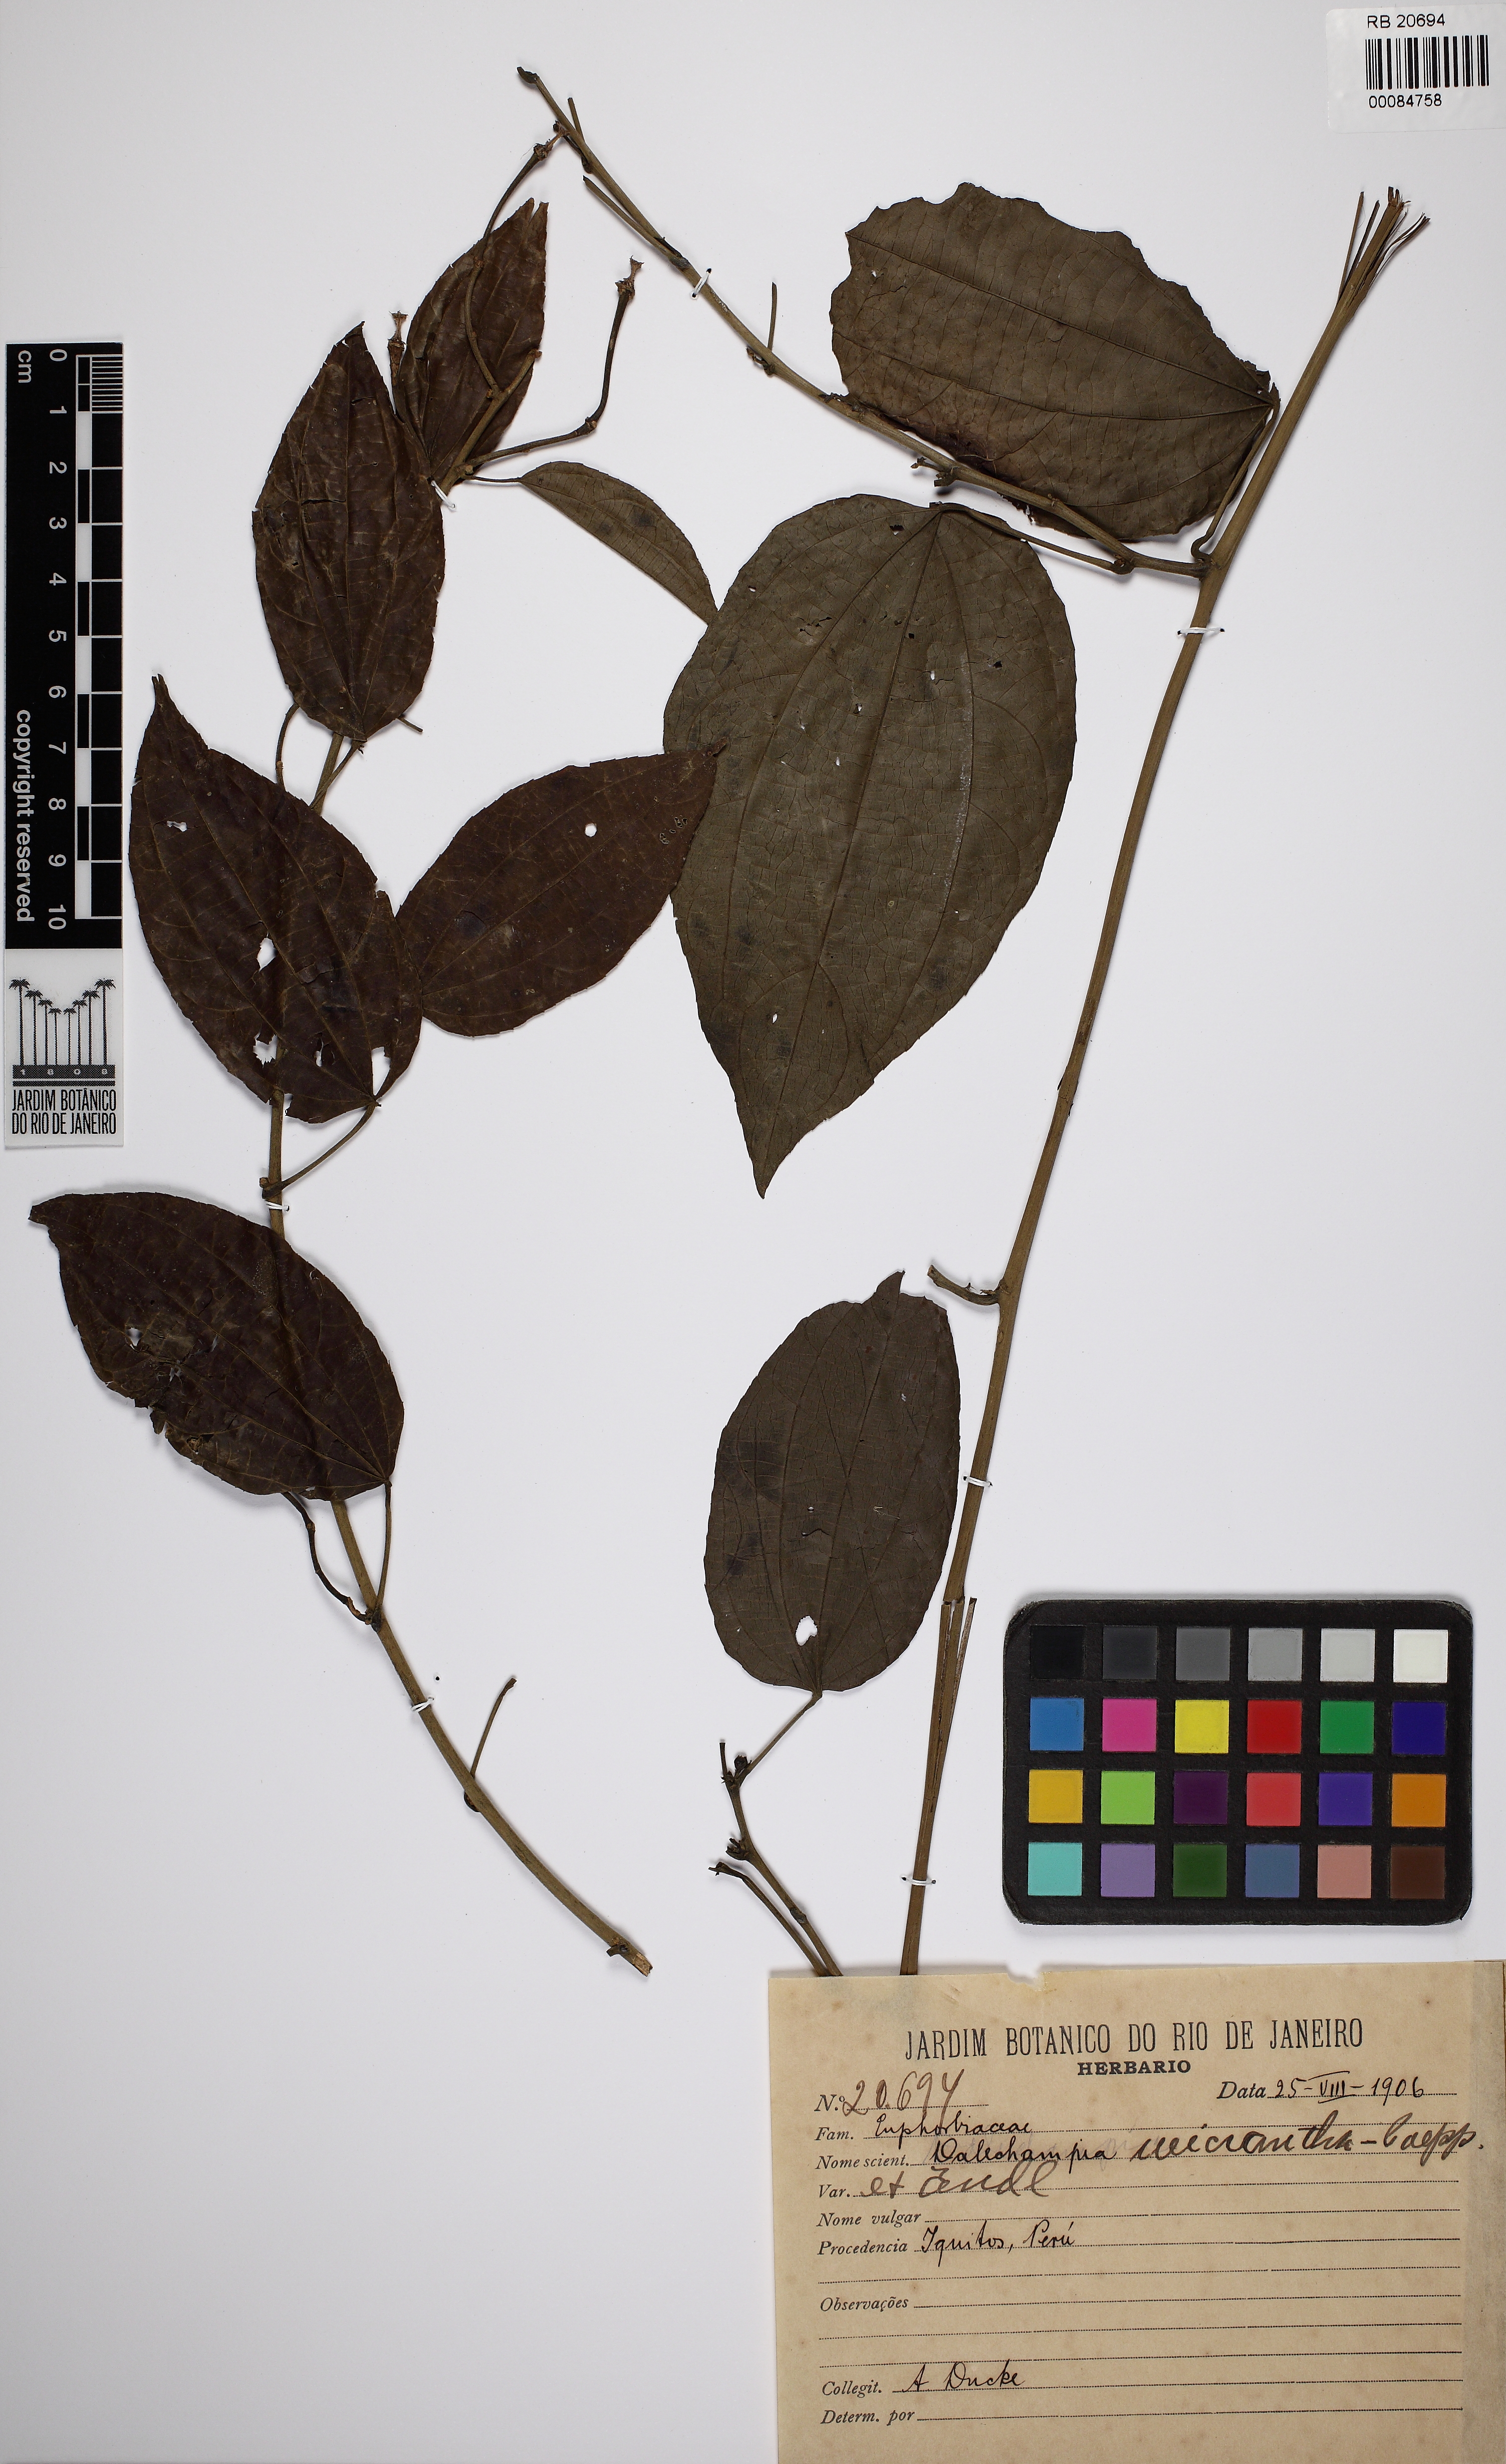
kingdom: Plantae
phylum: Tracheophyta
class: Magnoliopsida
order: Malpighiales
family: Euphorbiaceae
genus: Dalechampia
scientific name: Dalechampia meridionalis
